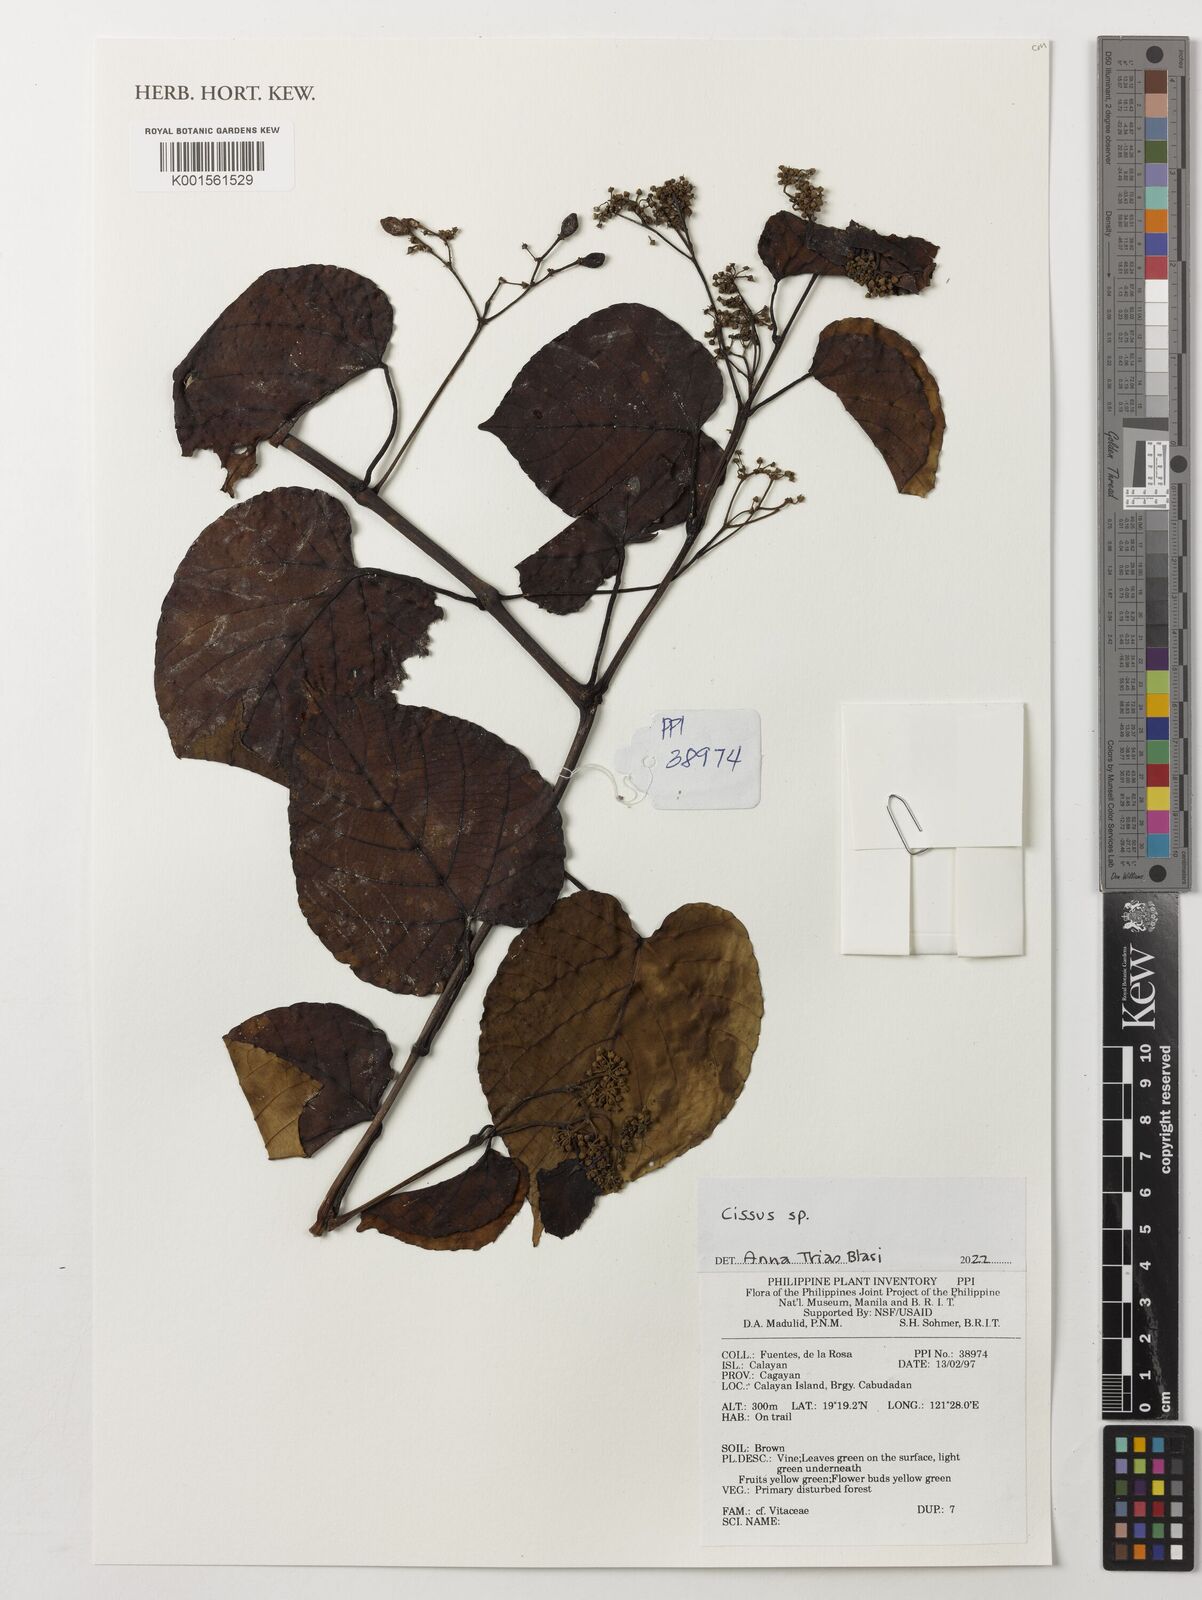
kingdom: Plantae
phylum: Tracheophyta
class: Magnoliopsida
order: Vitales
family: Vitaceae
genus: Cissus
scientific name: Cissus
